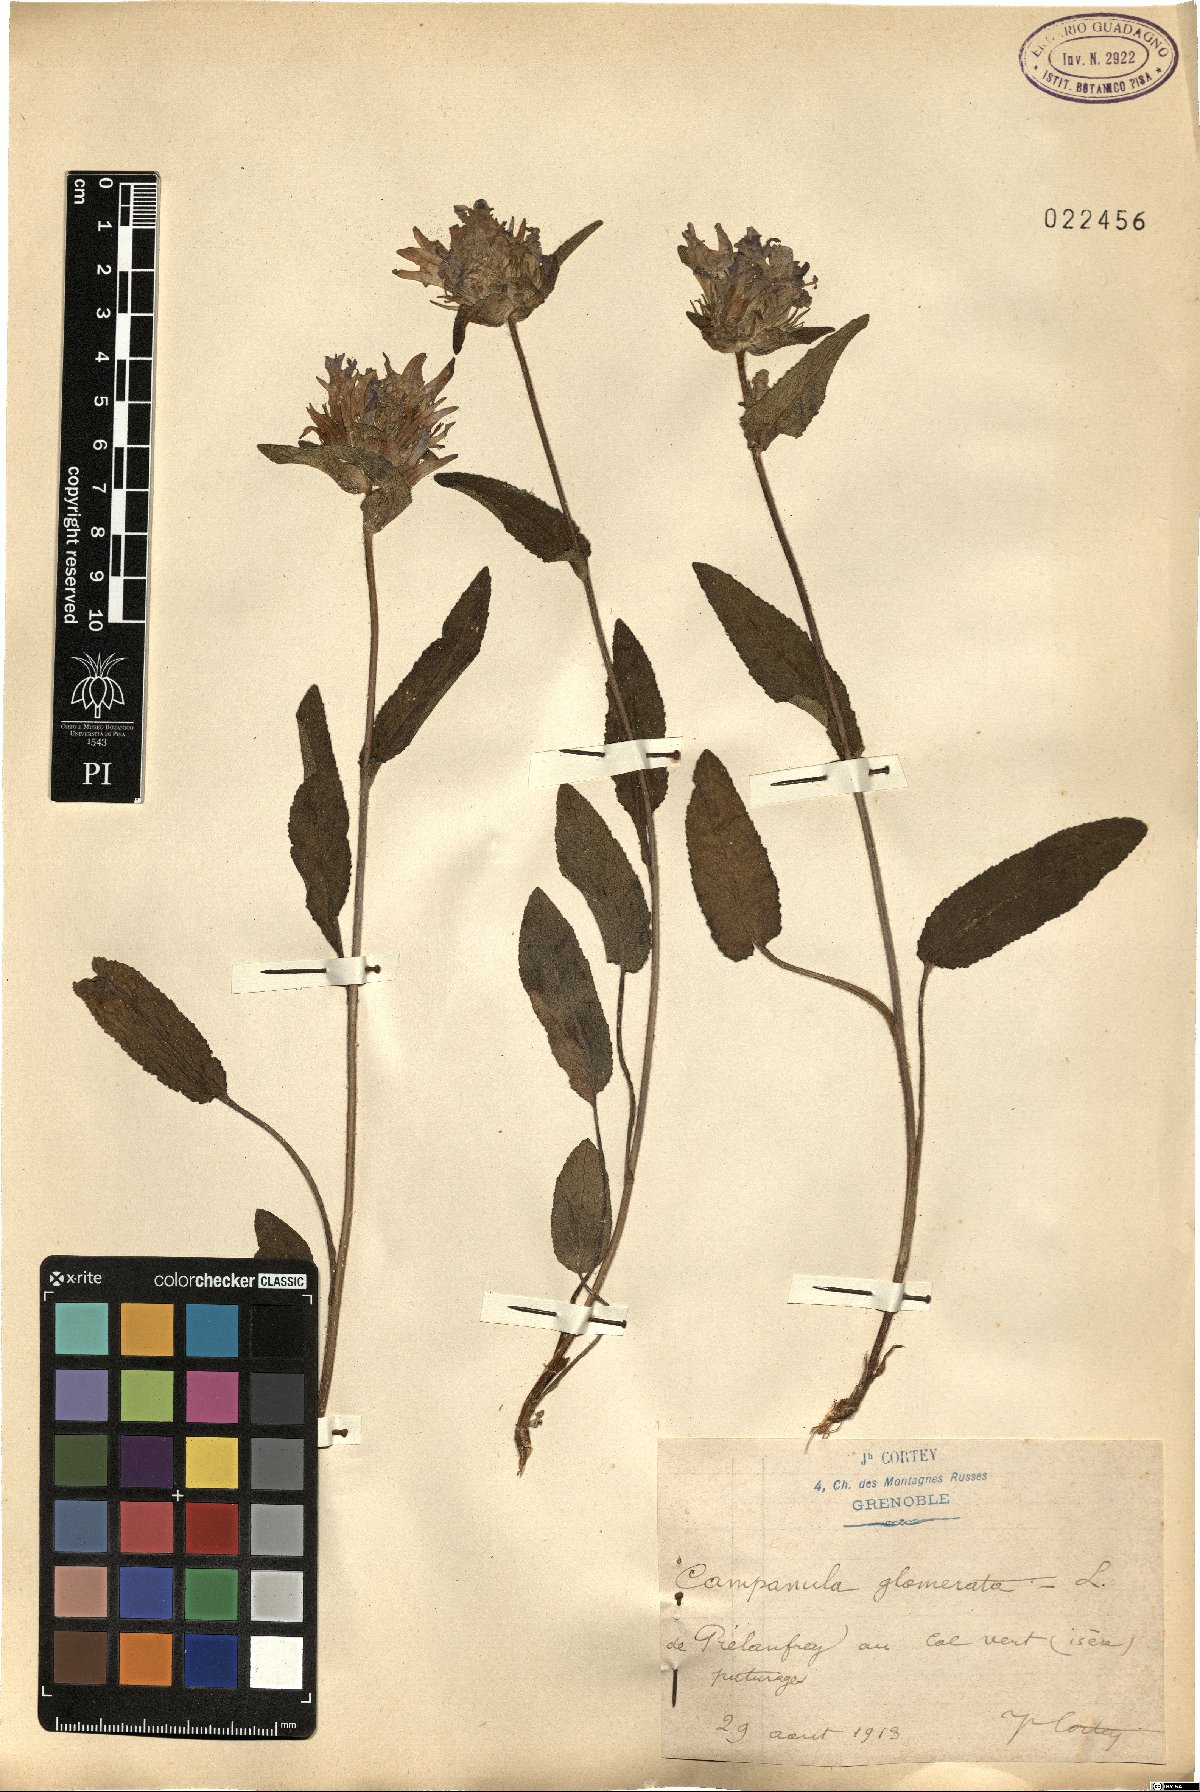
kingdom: Plantae
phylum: Tracheophyta
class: Magnoliopsida
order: Asterales
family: Campanulaceae
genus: Campanula
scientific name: Campanula glomerata
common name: Clustered bellflower
